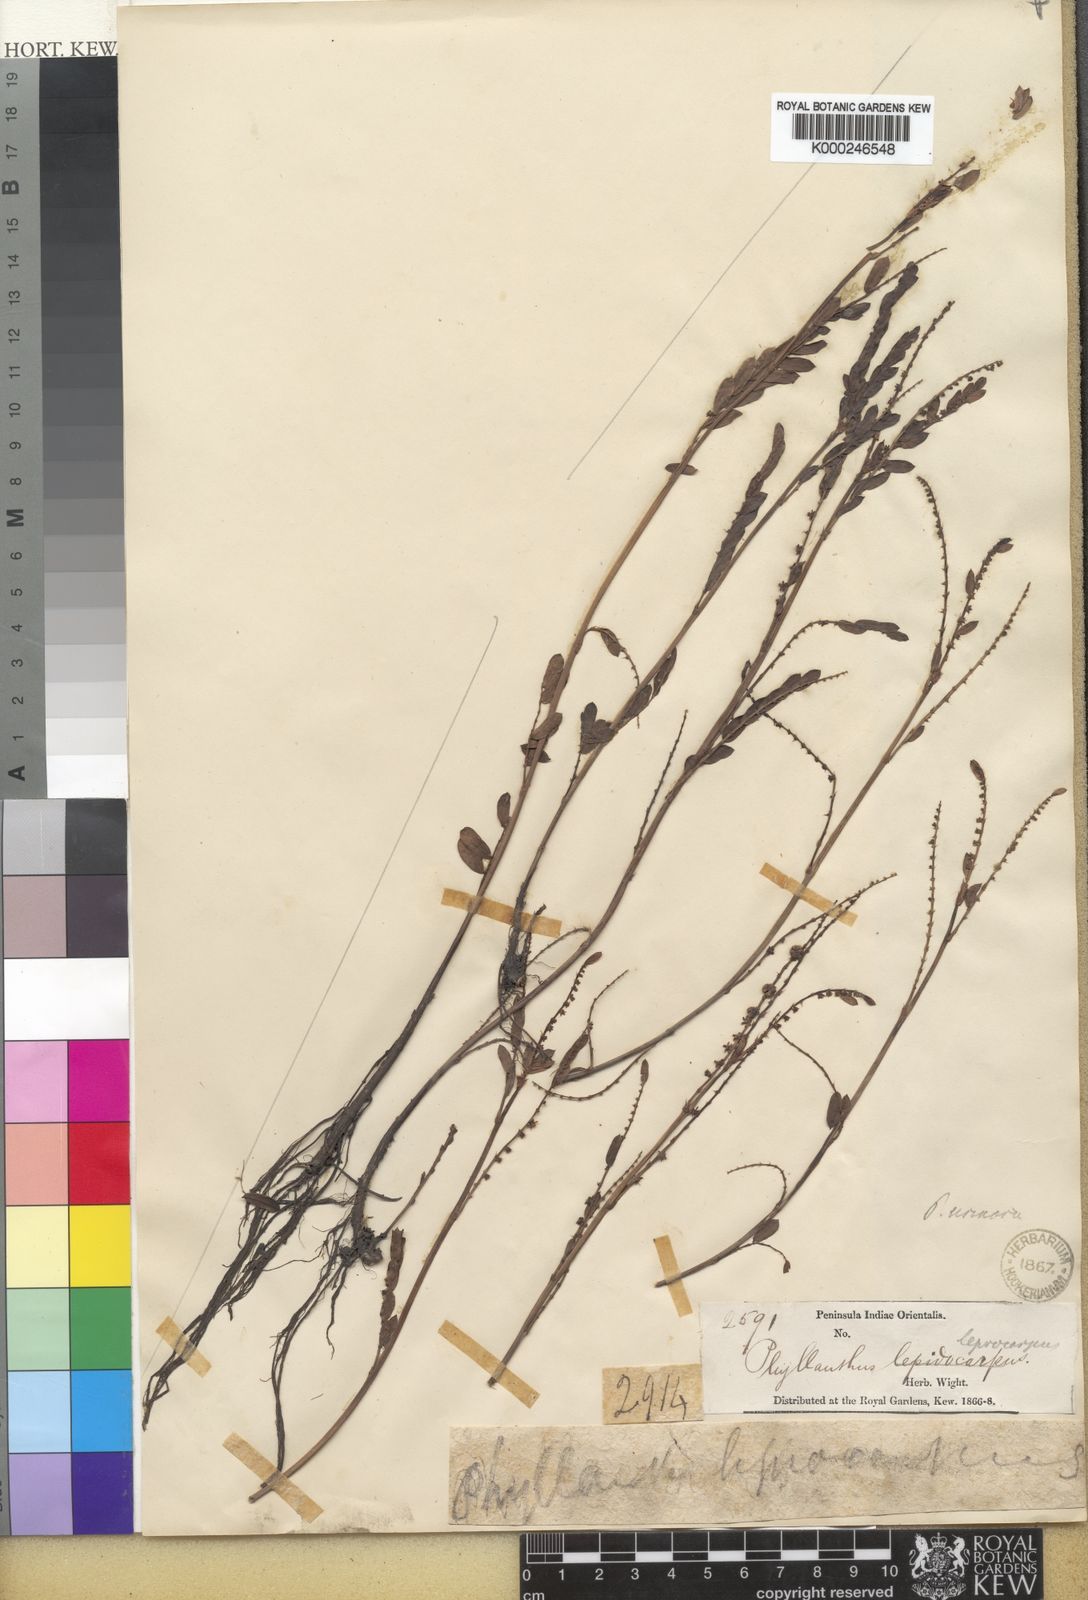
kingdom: Plantae
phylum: Tracheophyta
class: Magnoliopsida
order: Malpighiales
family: Phyllanthaceae
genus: Phyllanthus
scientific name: Phyllanthus urinaria
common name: Chamber bitter
